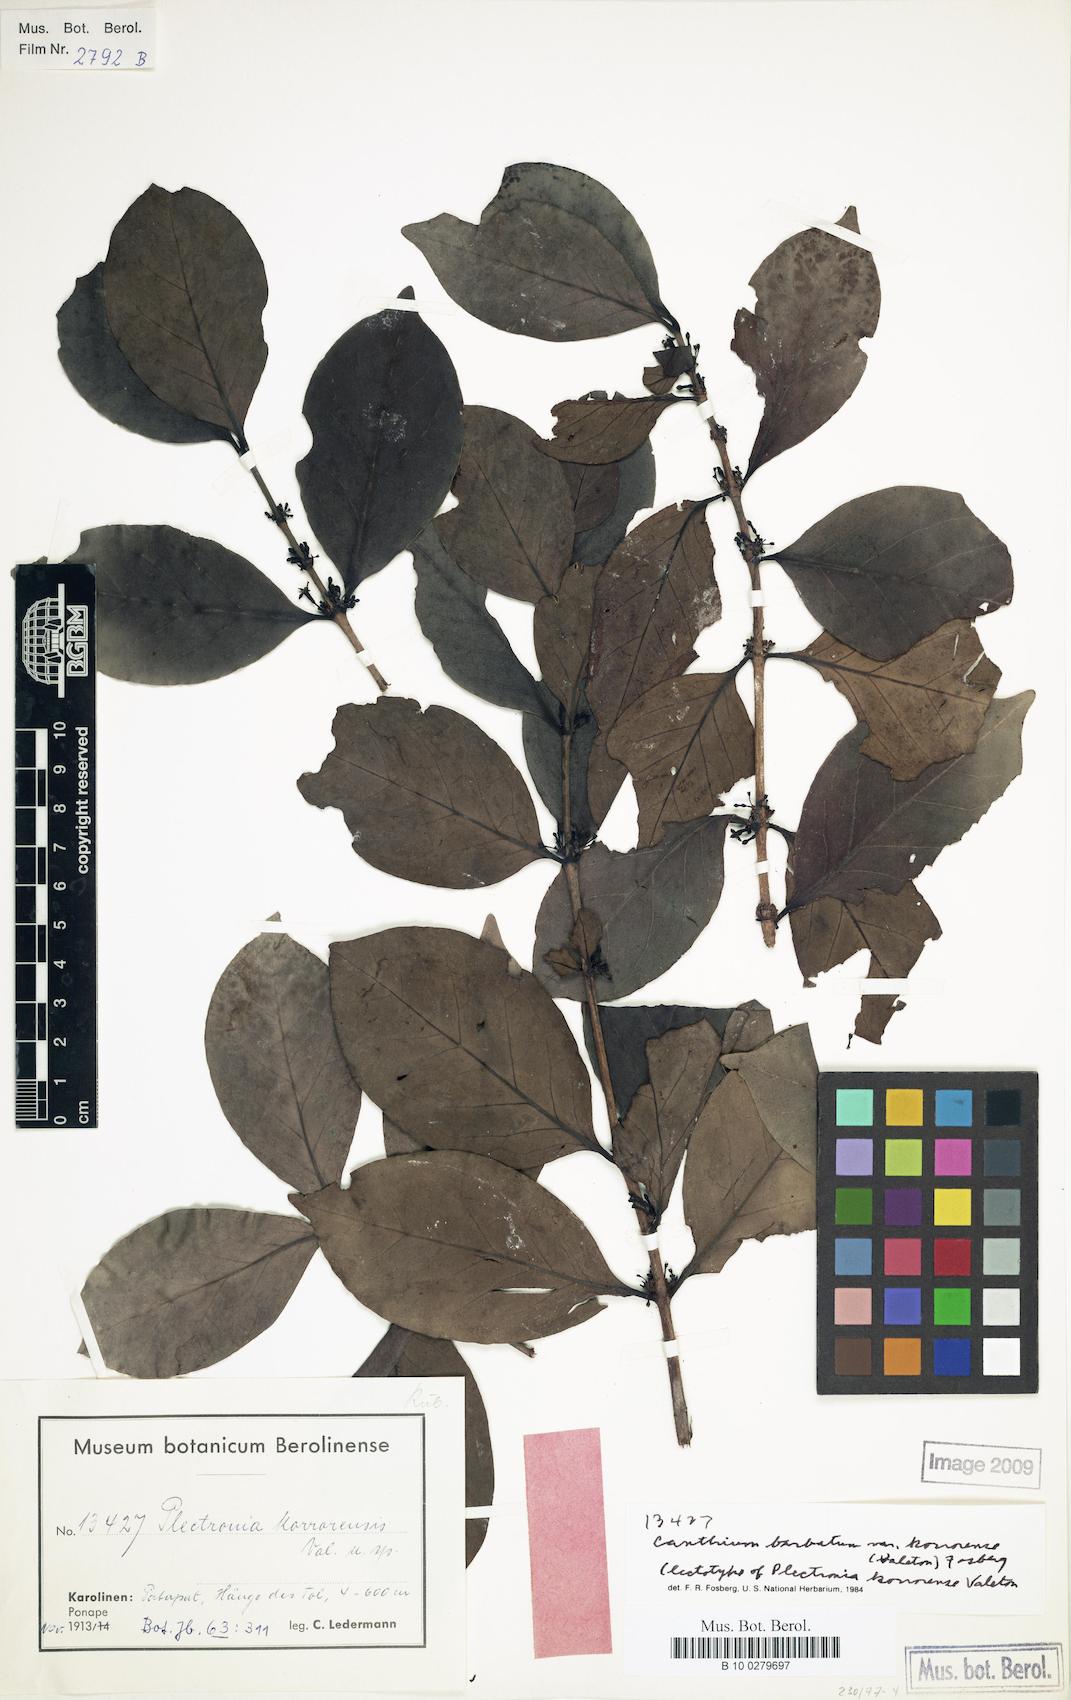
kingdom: Plantae
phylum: Tracheophyta
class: Magnoliopsida
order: Gentianales
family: Rubiaceae
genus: Cyclophyllum
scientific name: Cyclophyllum barbatum
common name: Cyclophyllum
